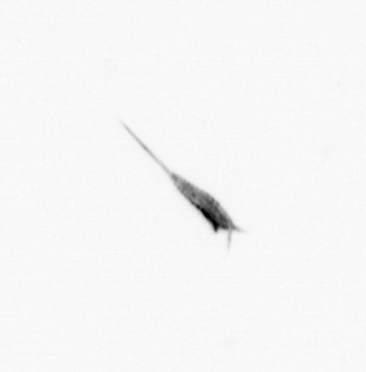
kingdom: Animalia
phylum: Arthropoda
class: Copepoda
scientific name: Copepoda
